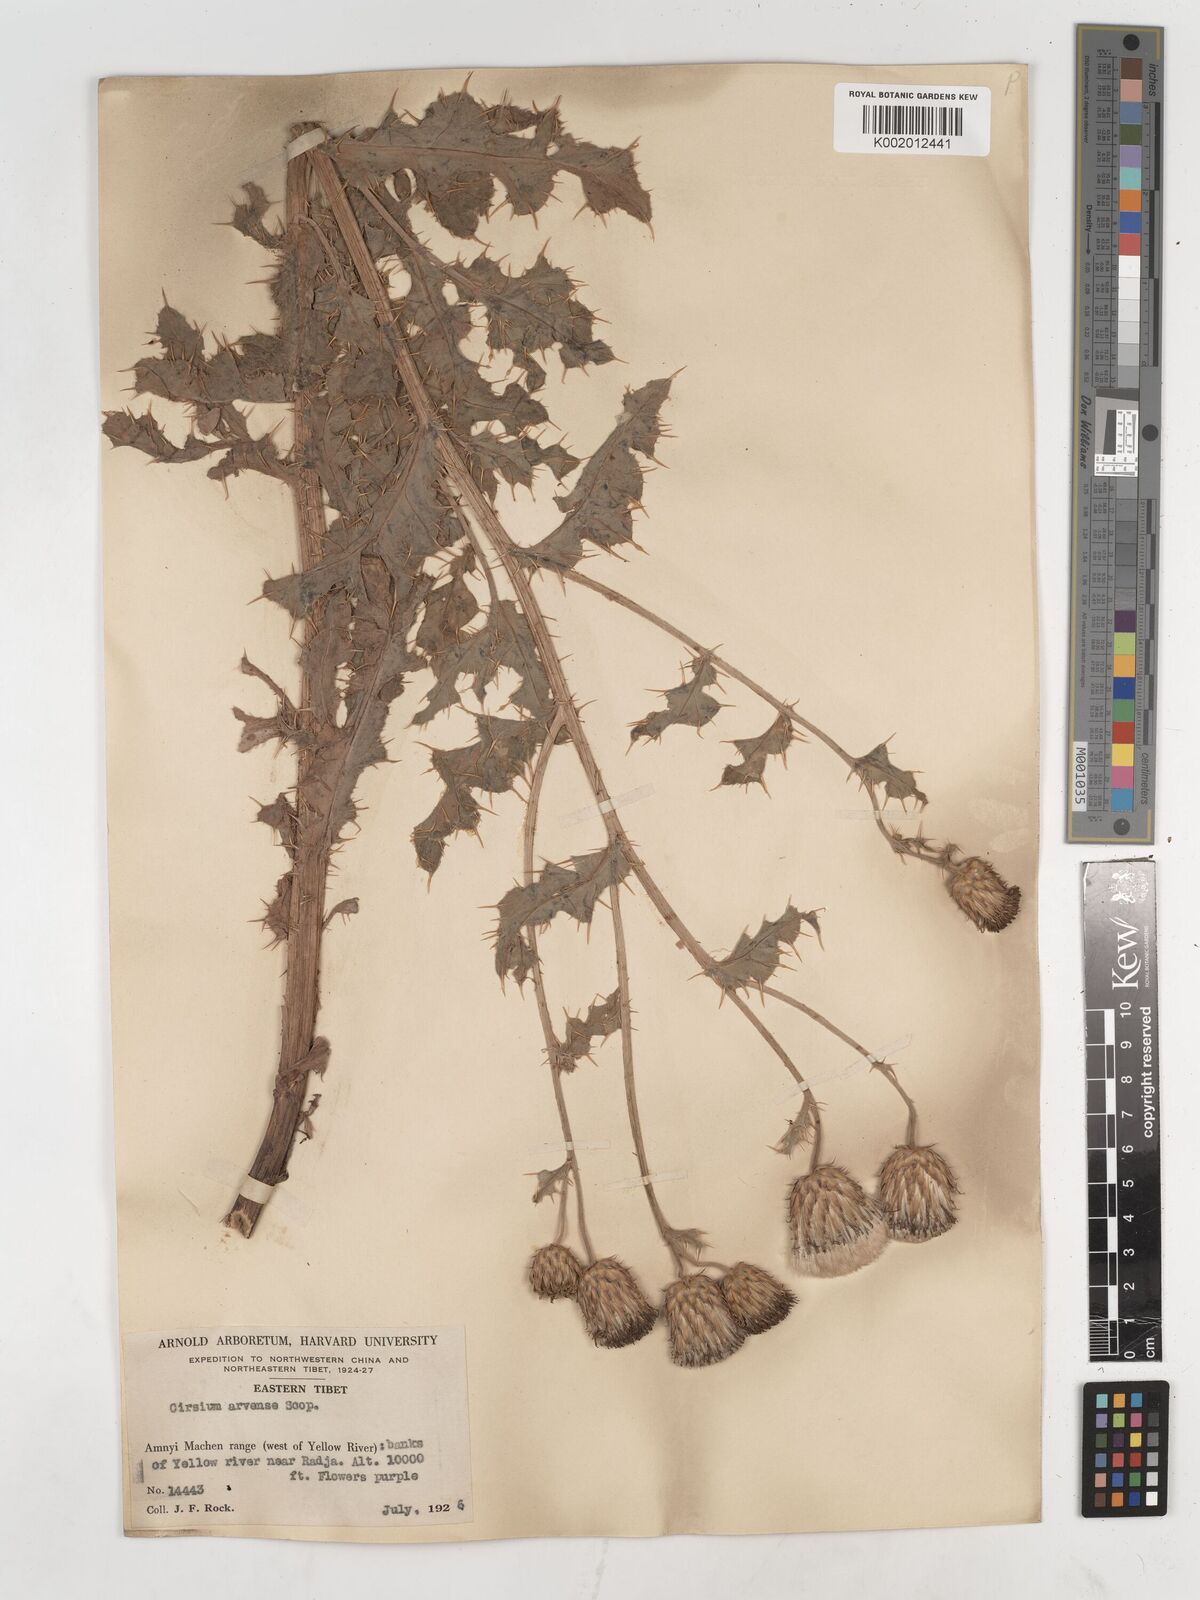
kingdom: Plantae
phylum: Tracheophyta
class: Magnoliopsida
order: Asterales
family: Asteraceae
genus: Cirsium
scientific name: Cirsium chinense
